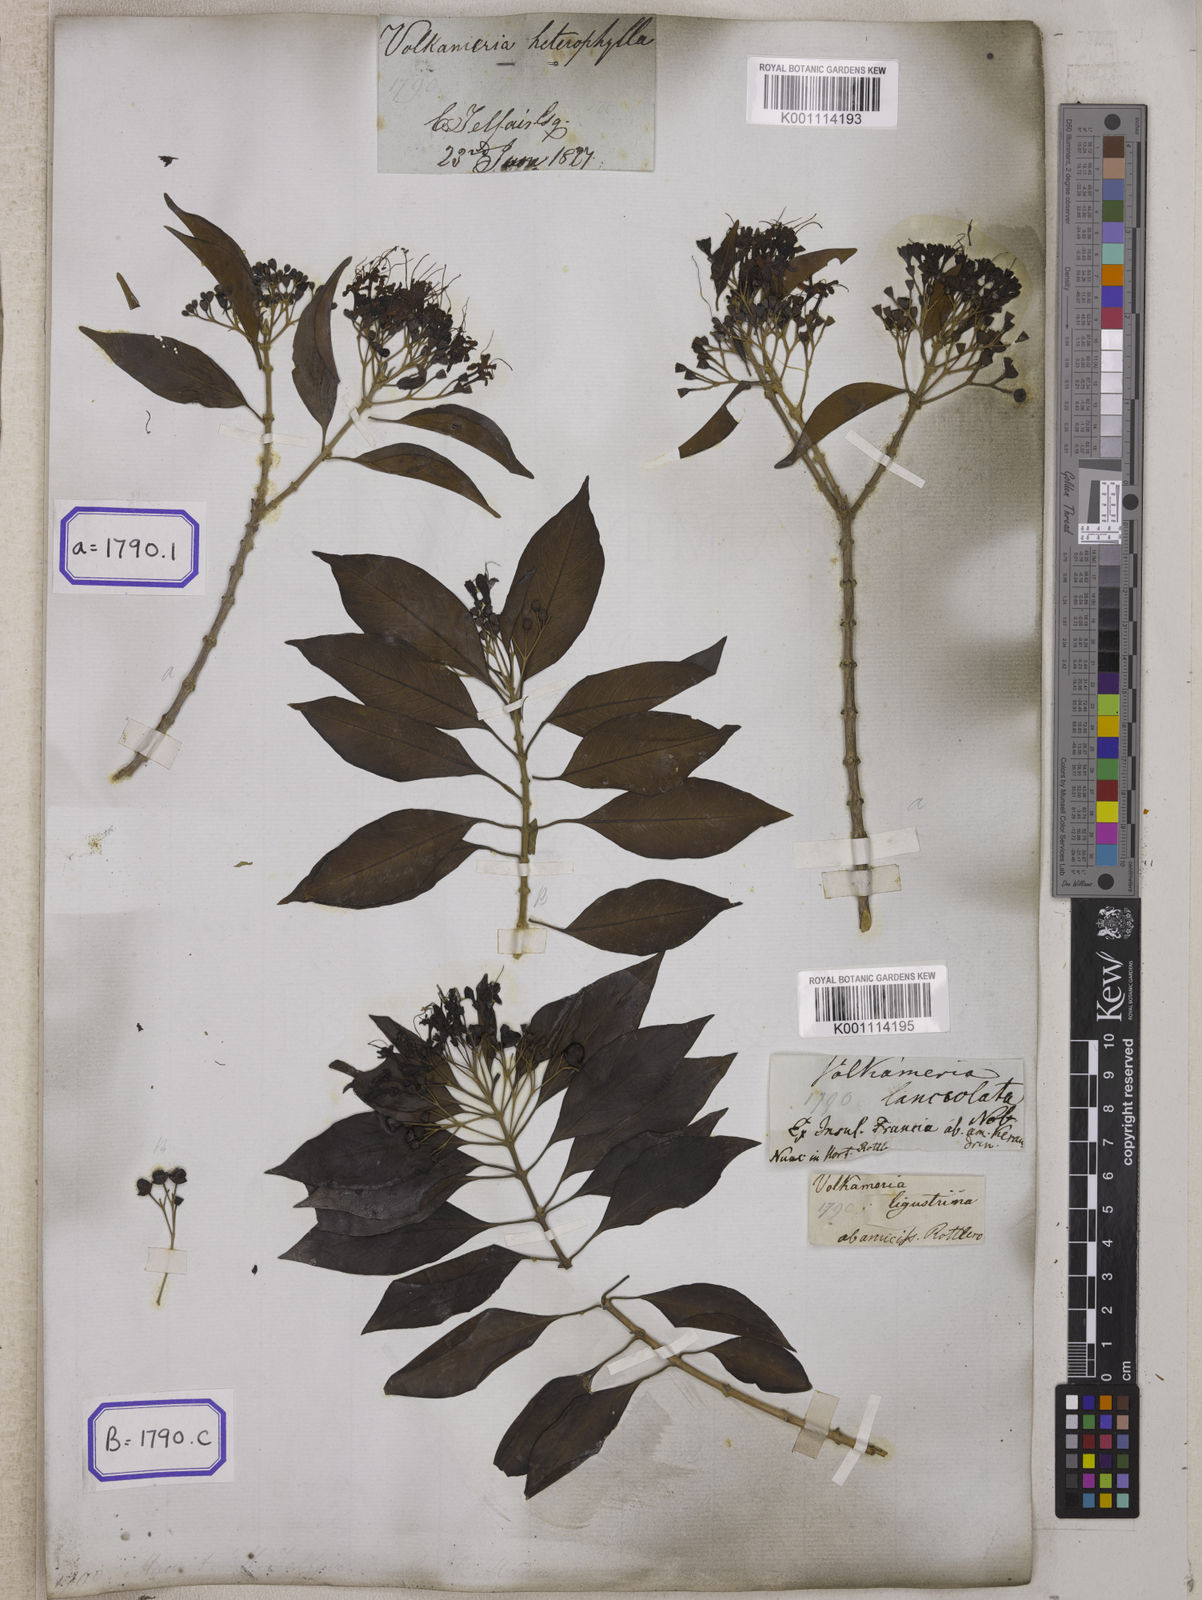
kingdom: Plantae
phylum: Tracheophyta
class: Magnoliopsida
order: Lamiales
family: Lamiaceae
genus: Volkameria
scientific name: Volkameria heterophylla
